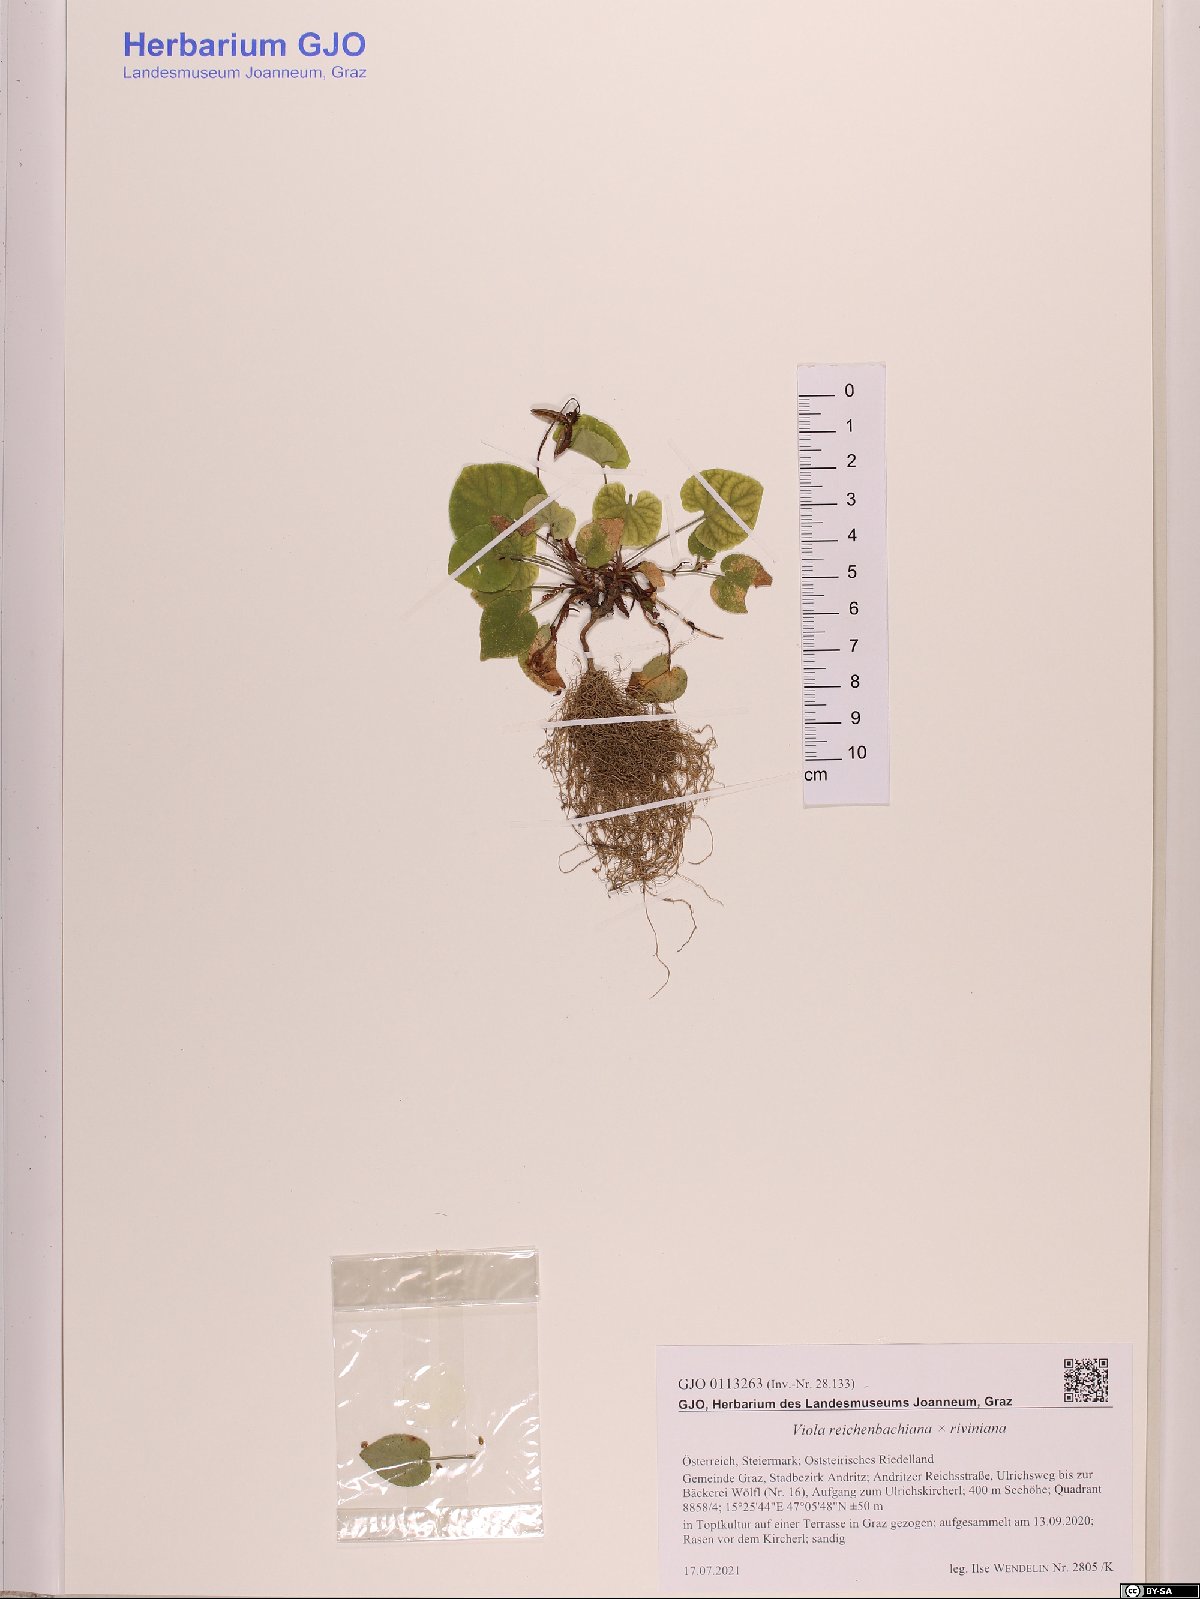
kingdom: Plantae
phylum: Tracheophyta
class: Magnoliopsida
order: Malpighiales
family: Violaceae
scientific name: Violaceae
